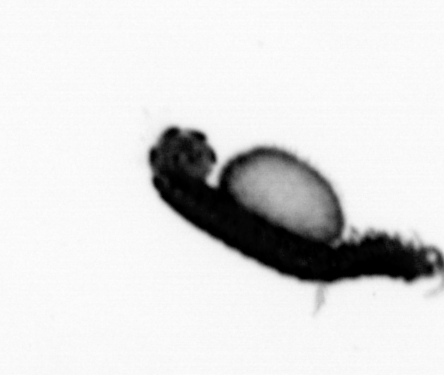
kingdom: Animalia
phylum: Annelida
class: Polychaeta
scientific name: Polychaeta
